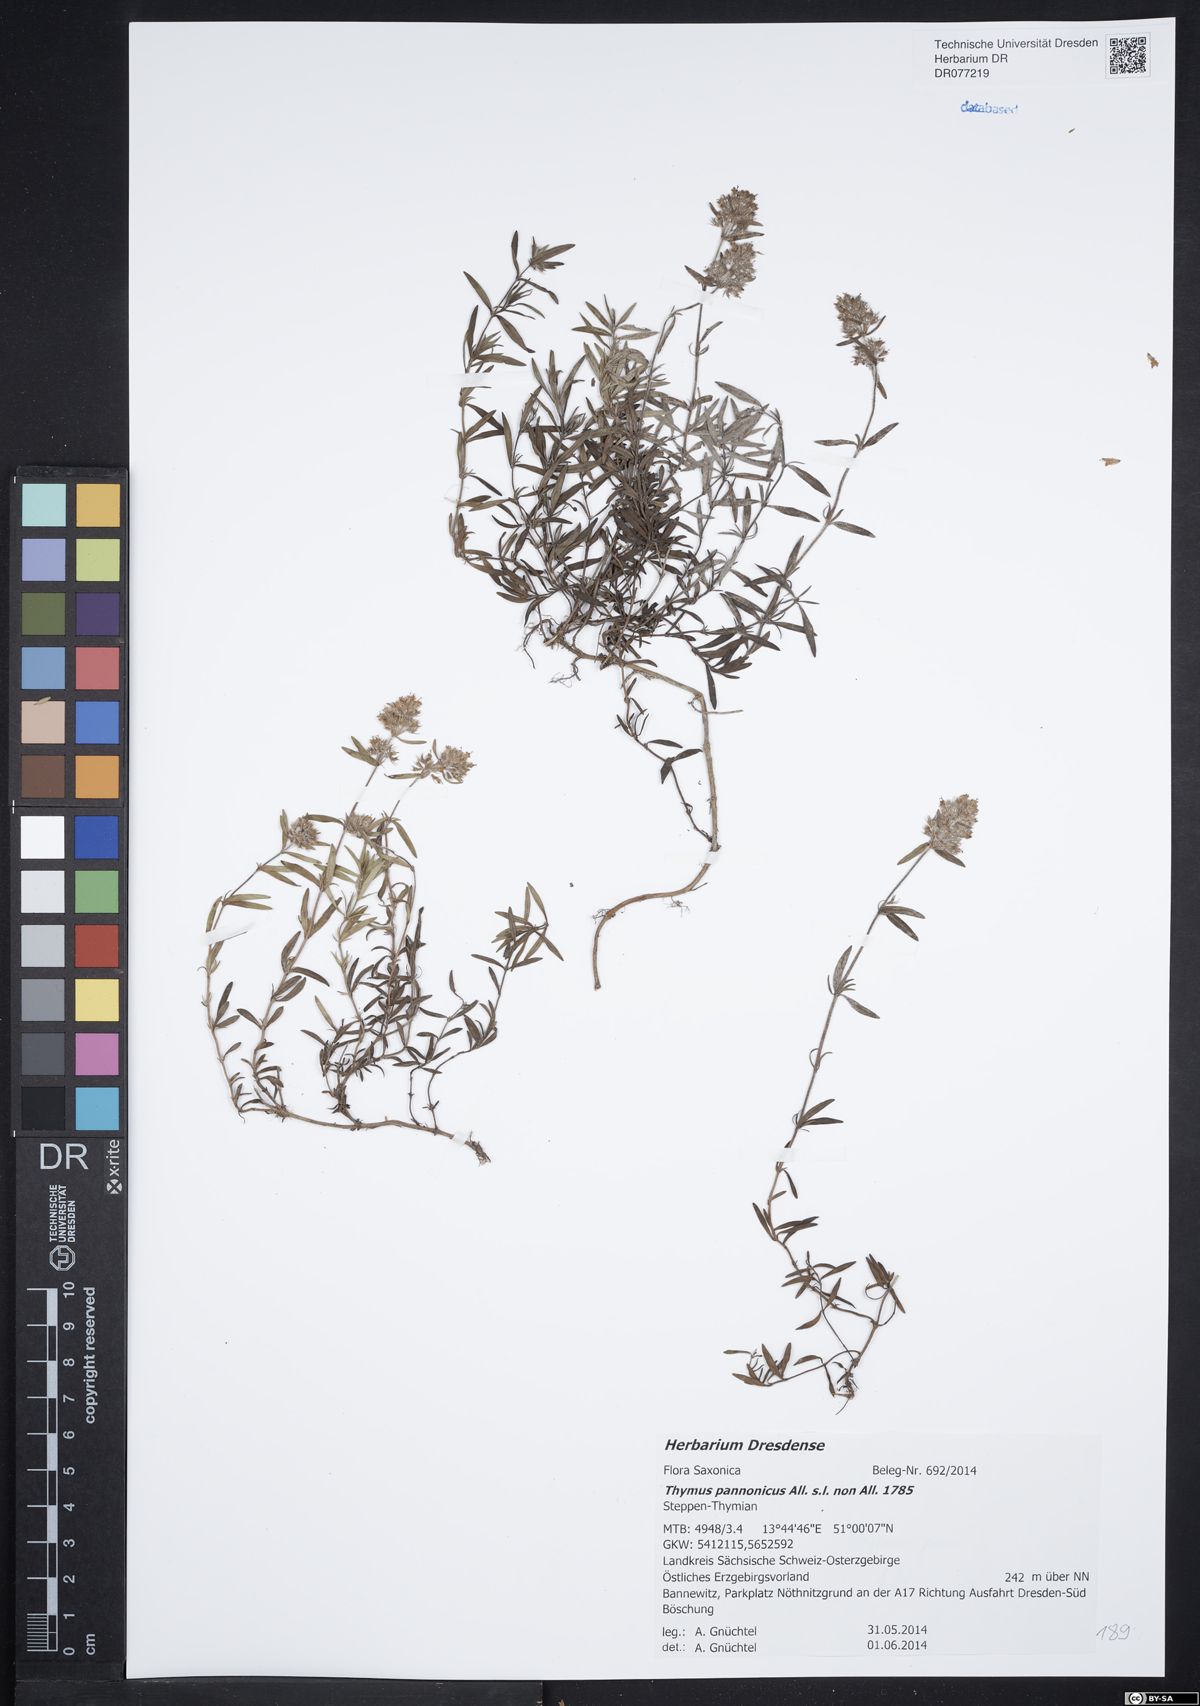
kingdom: Plantae
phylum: Tracheophyta
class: Magnoliopsida
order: Lamiales
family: Lamiaceae
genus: Thymus
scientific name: Thymus pannonicus
